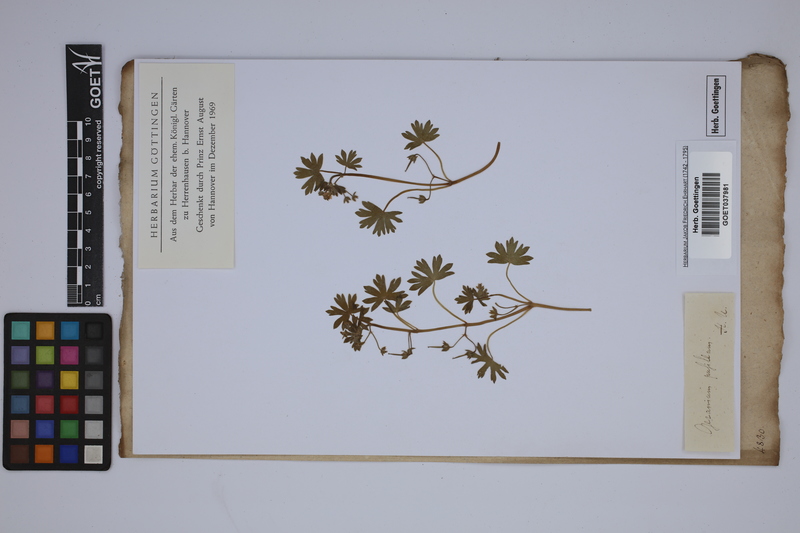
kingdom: Plantae
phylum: Tracheophyta
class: Magnoliopsida
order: Geraniales
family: Geraniaceae
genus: Geranium
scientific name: Geranium pusillum
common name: Small geranium
